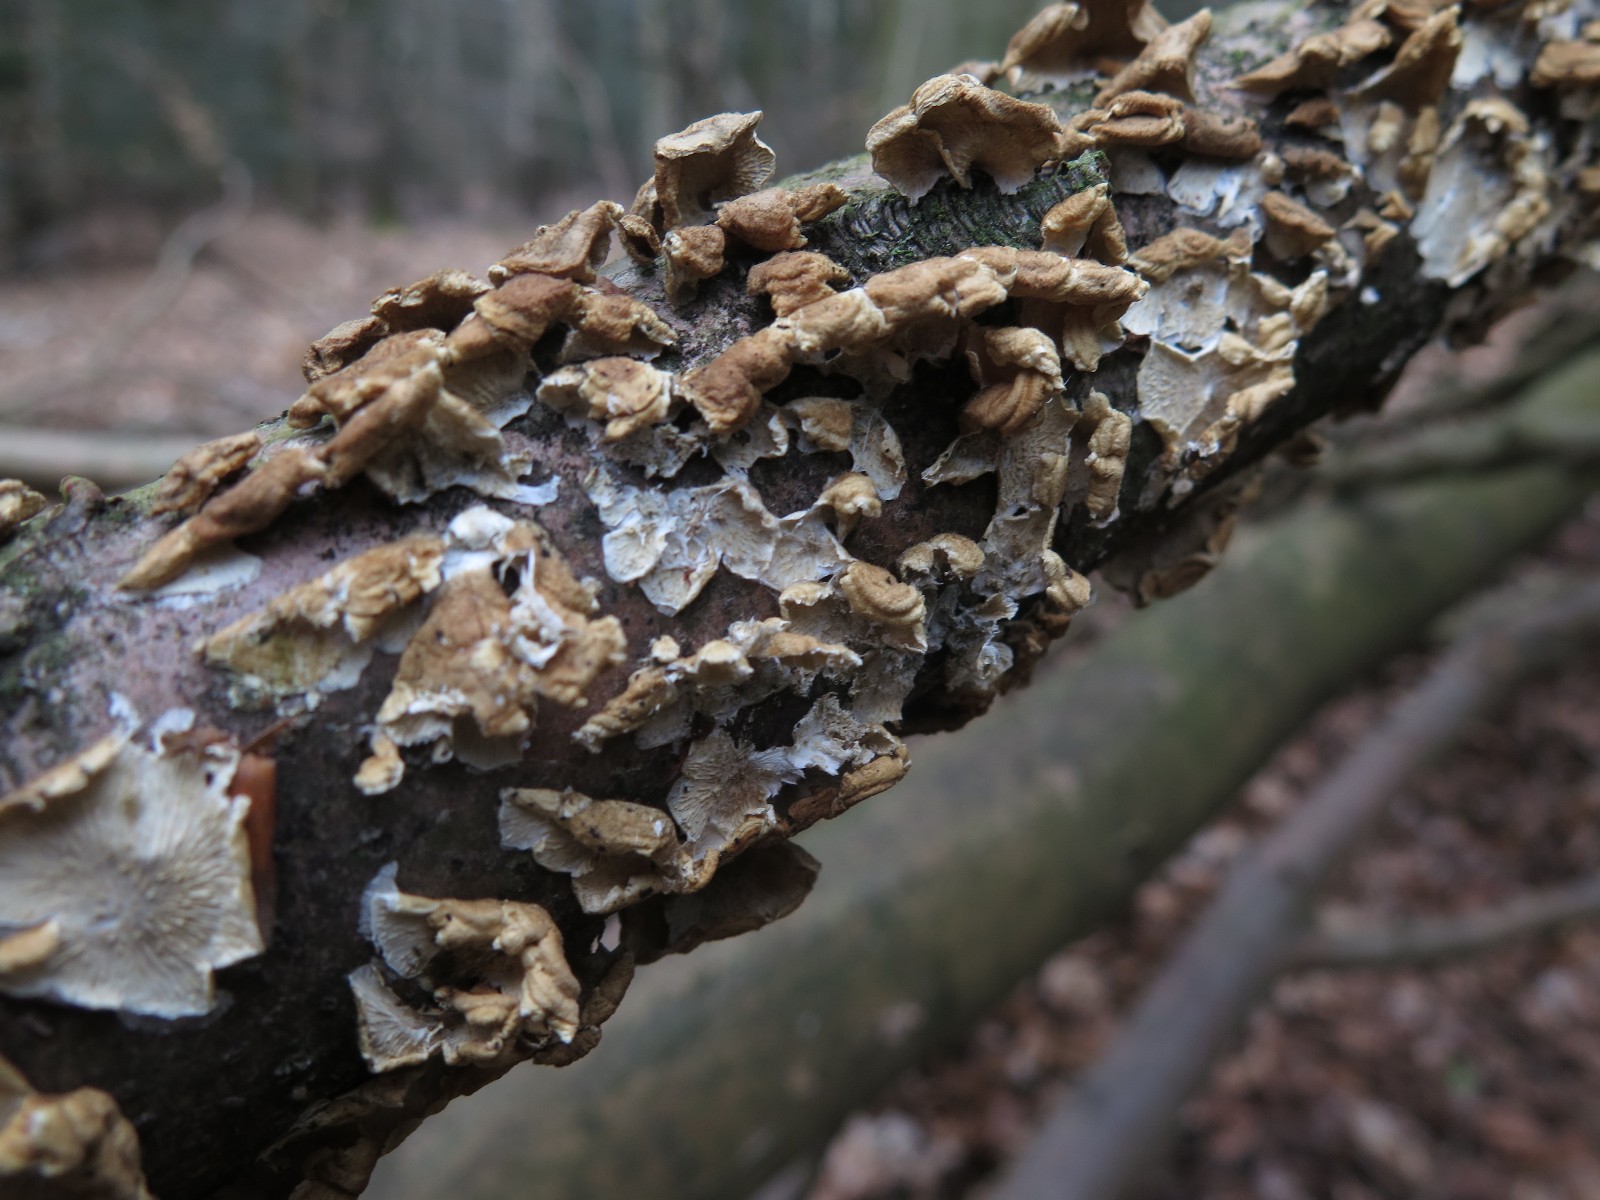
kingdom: Fungi
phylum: Basidiomycota
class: Agaricomycetes
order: Amylocorticiales
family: Amylocorticiaceae
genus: Plicaturopsis
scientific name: Plicaturopsis crispa
